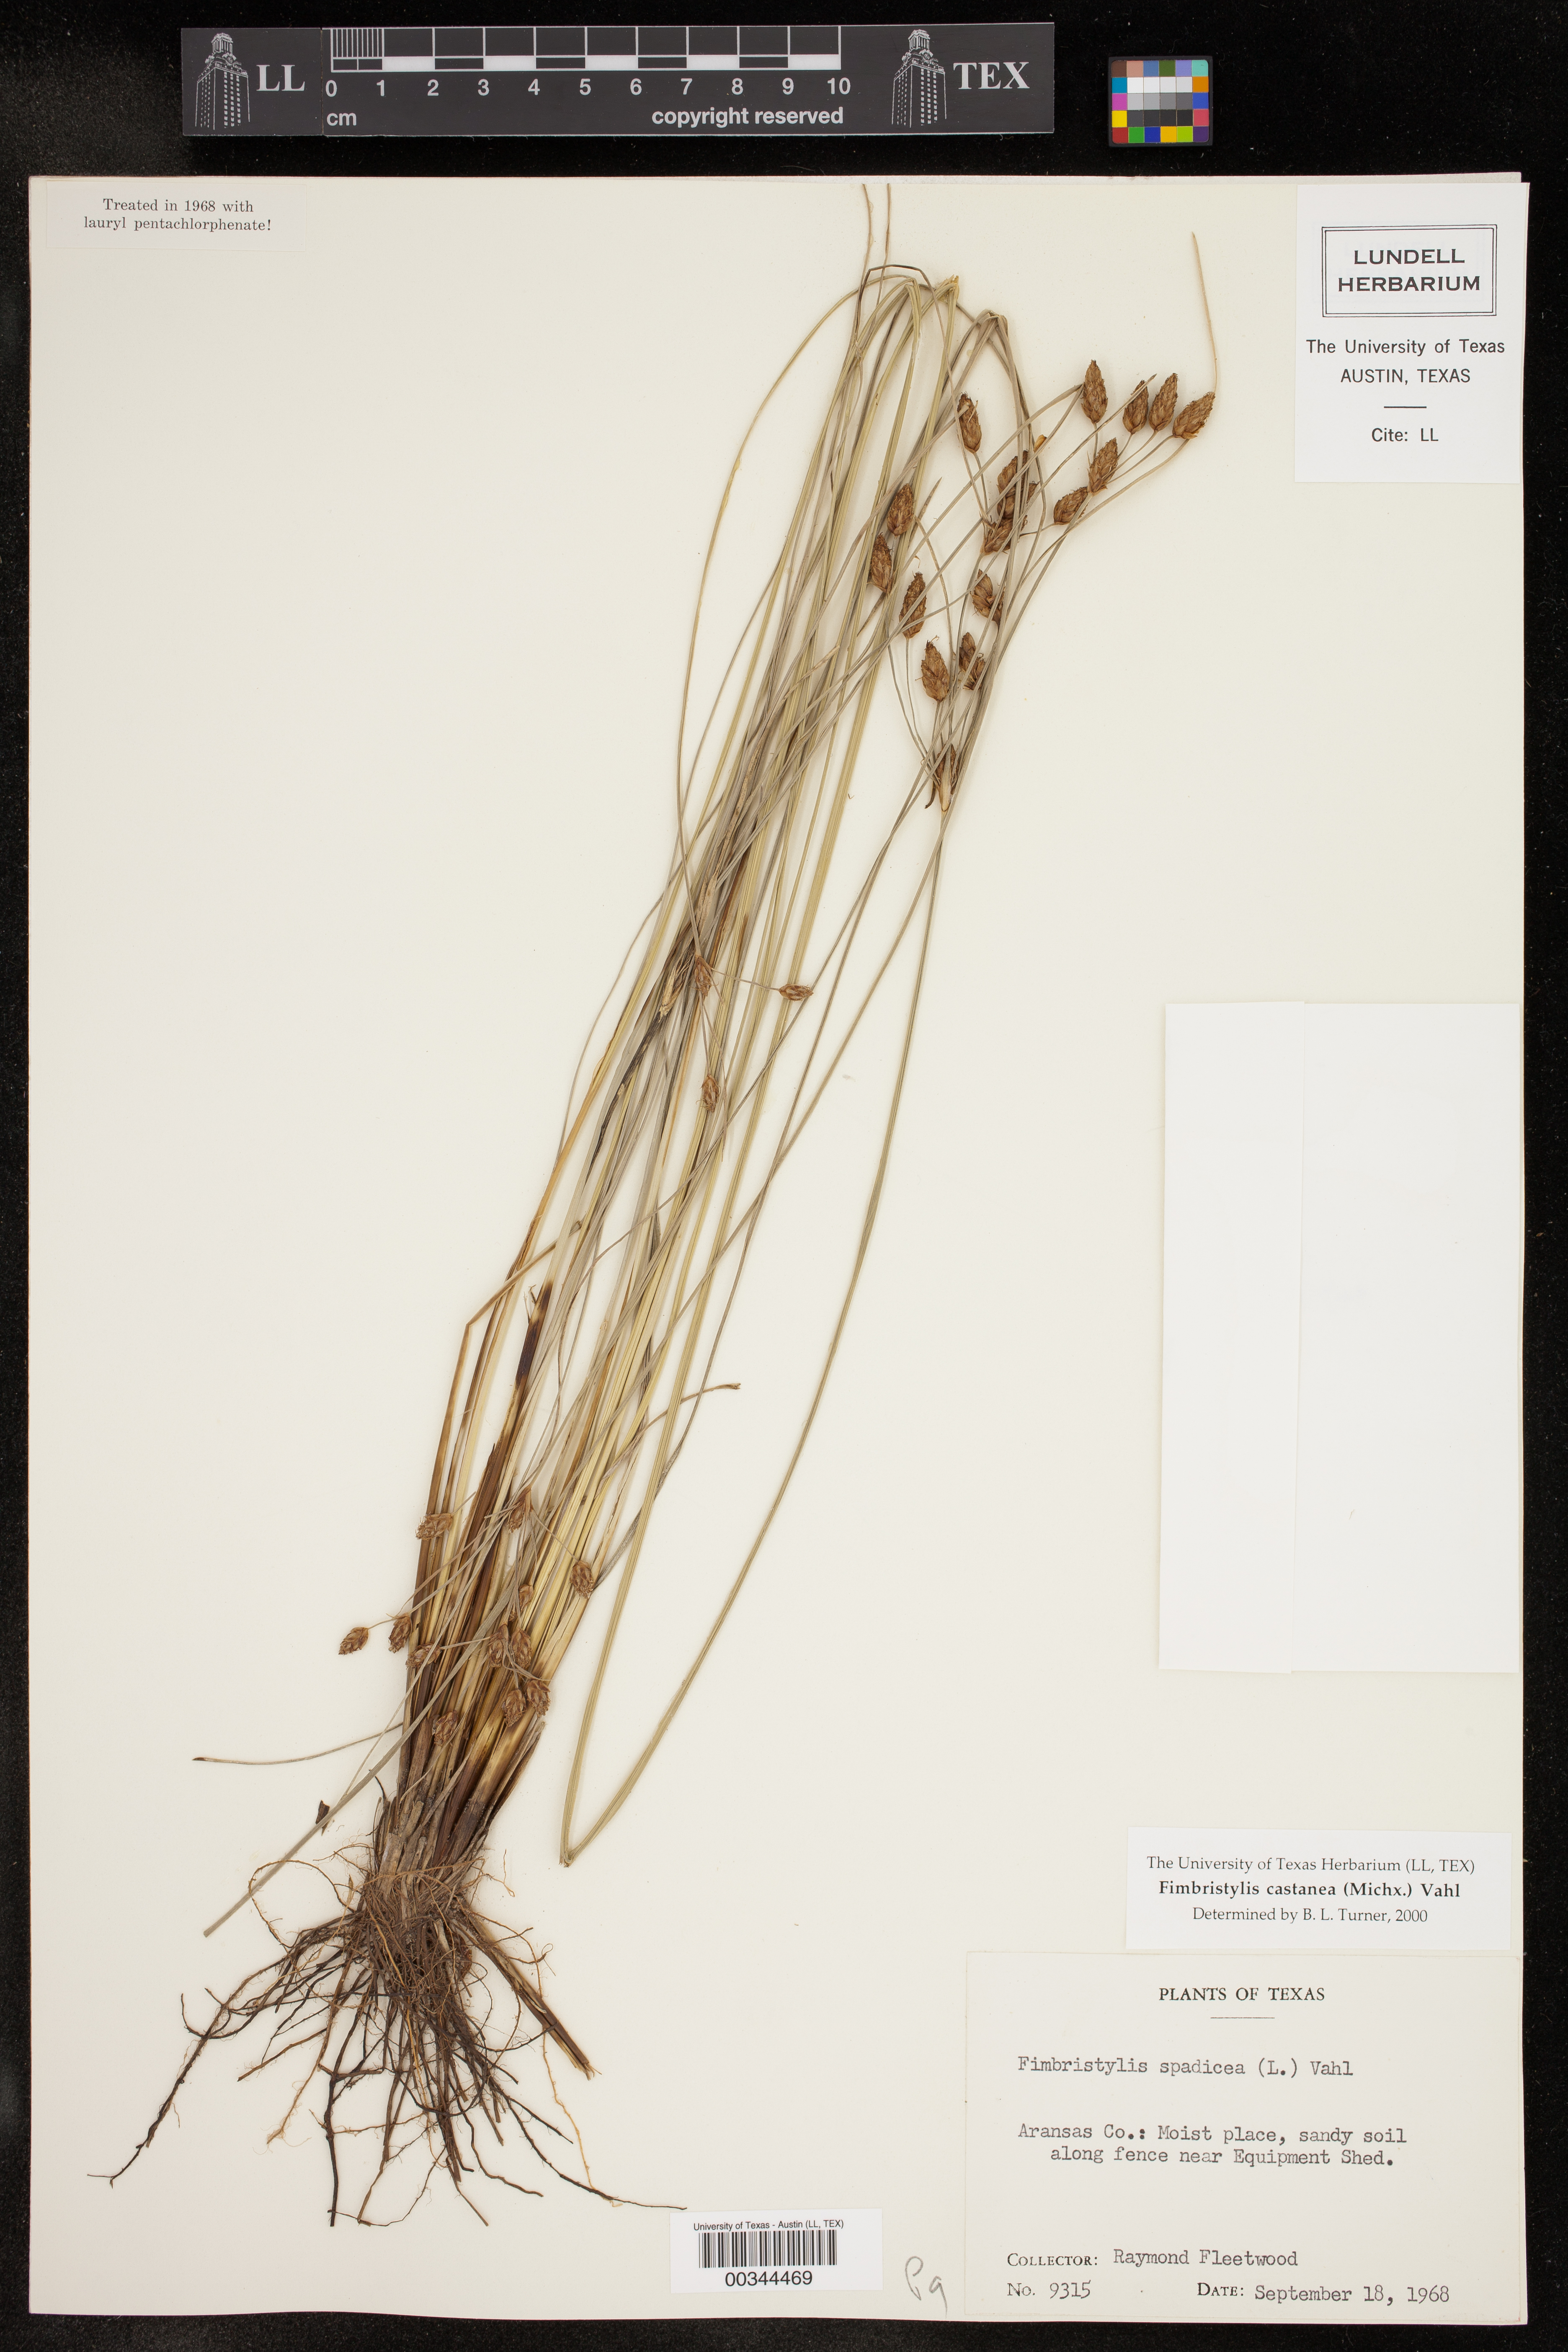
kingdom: Plantae
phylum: Tracheophyta
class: Liliopsida
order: Poales
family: Cyperaceae
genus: Fimbristylis
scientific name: Fimbristylis spadicea
